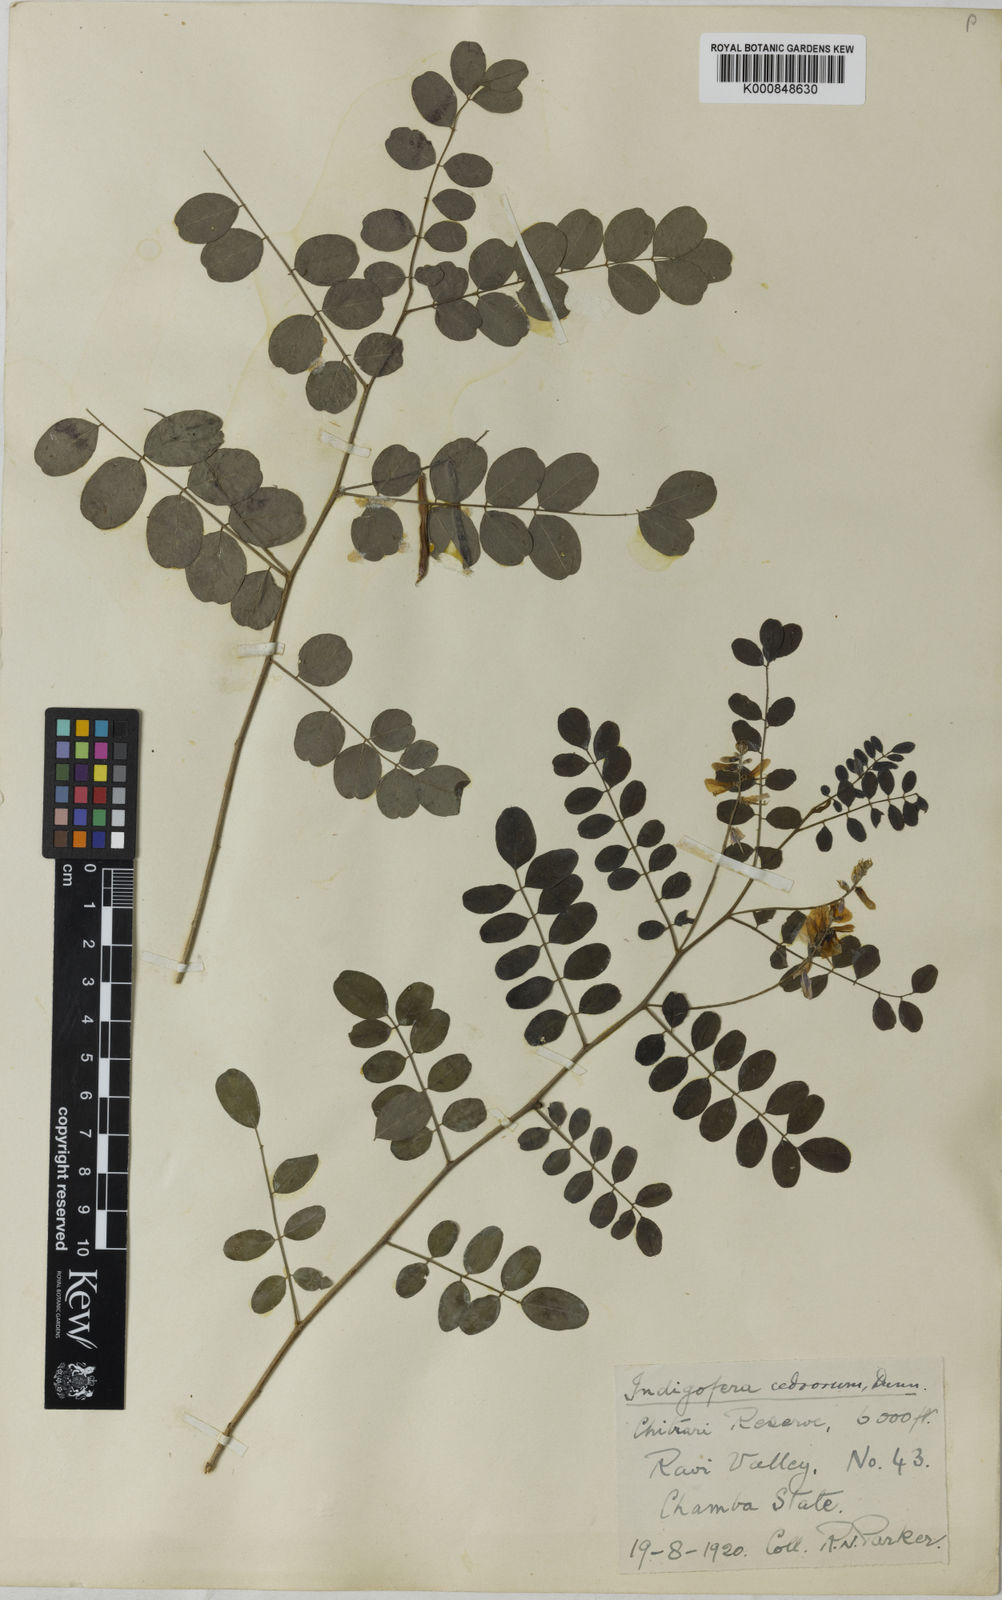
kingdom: Plantae
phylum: Tracheophyta
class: Magnoliopsida
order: Fabales
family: Fabaceae
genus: Indigofera
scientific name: Indigofera cedrorum
